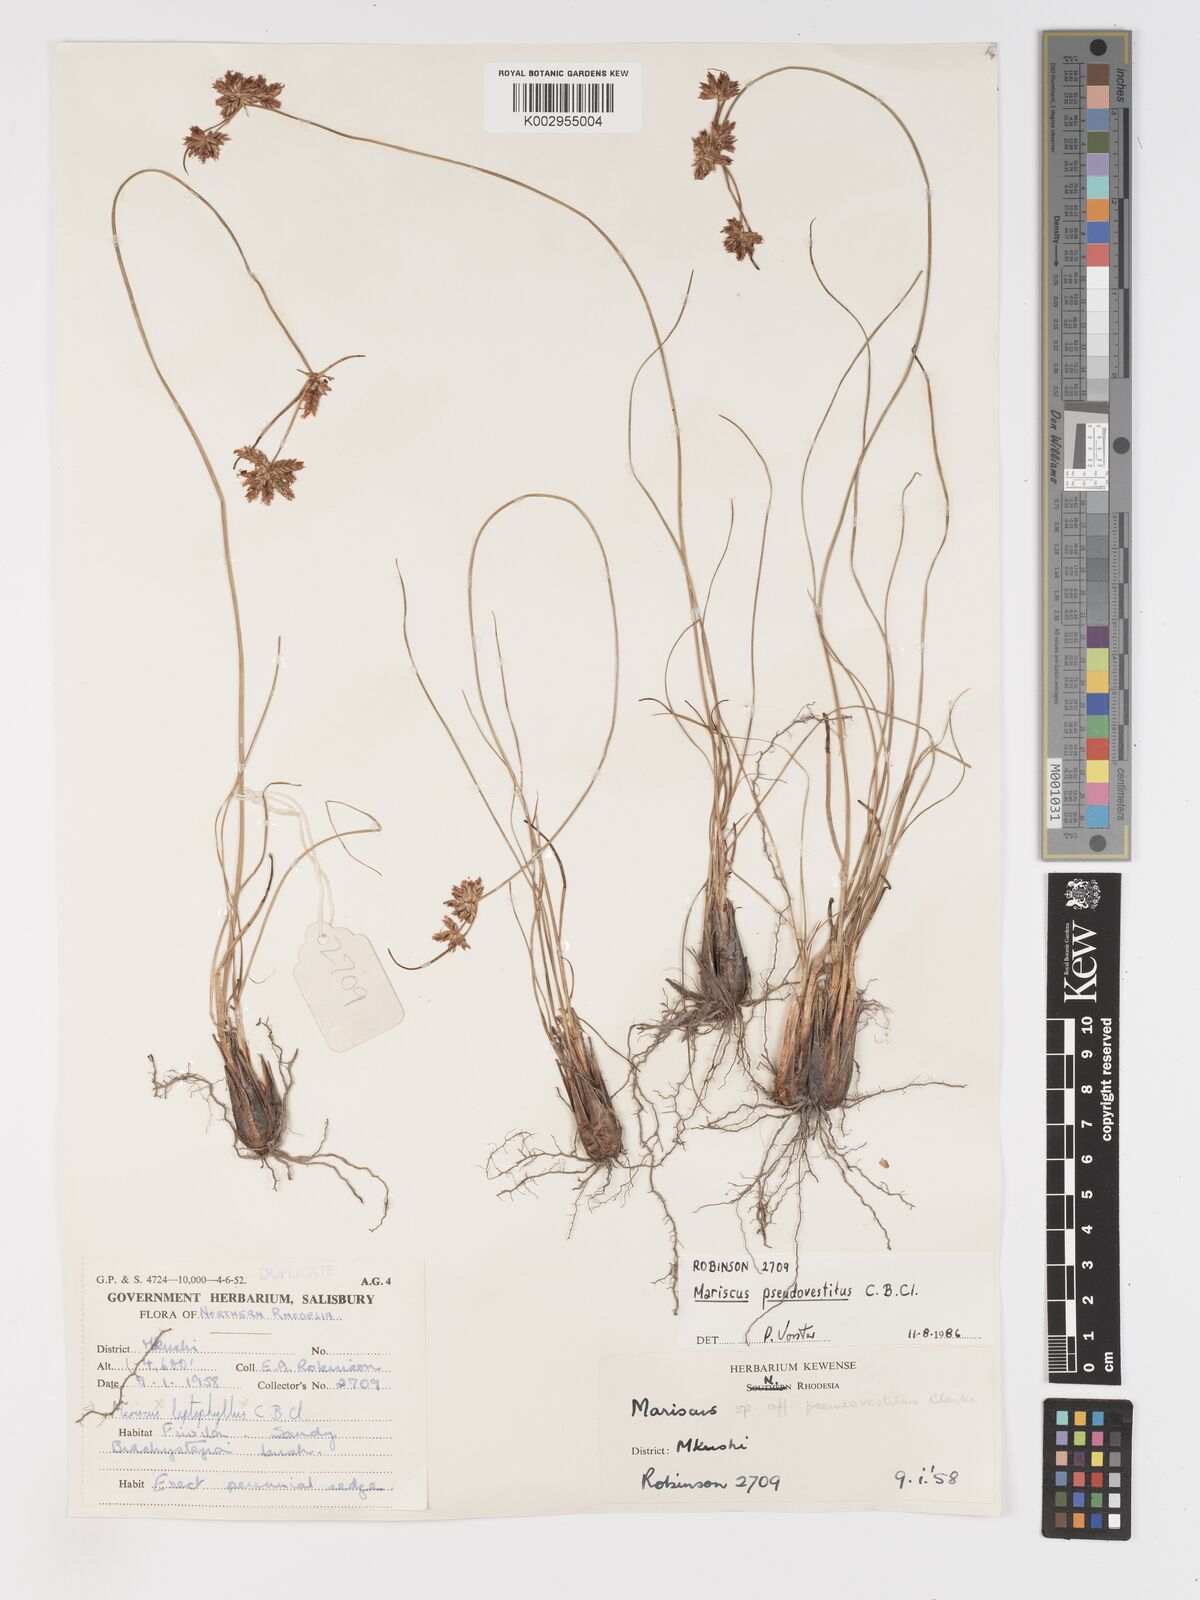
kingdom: Plantae
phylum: Tracheophyta
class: Liliopsida
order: Poales
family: Cyperaceae
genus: Cyperus
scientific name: Cyperus pseudovestitus
